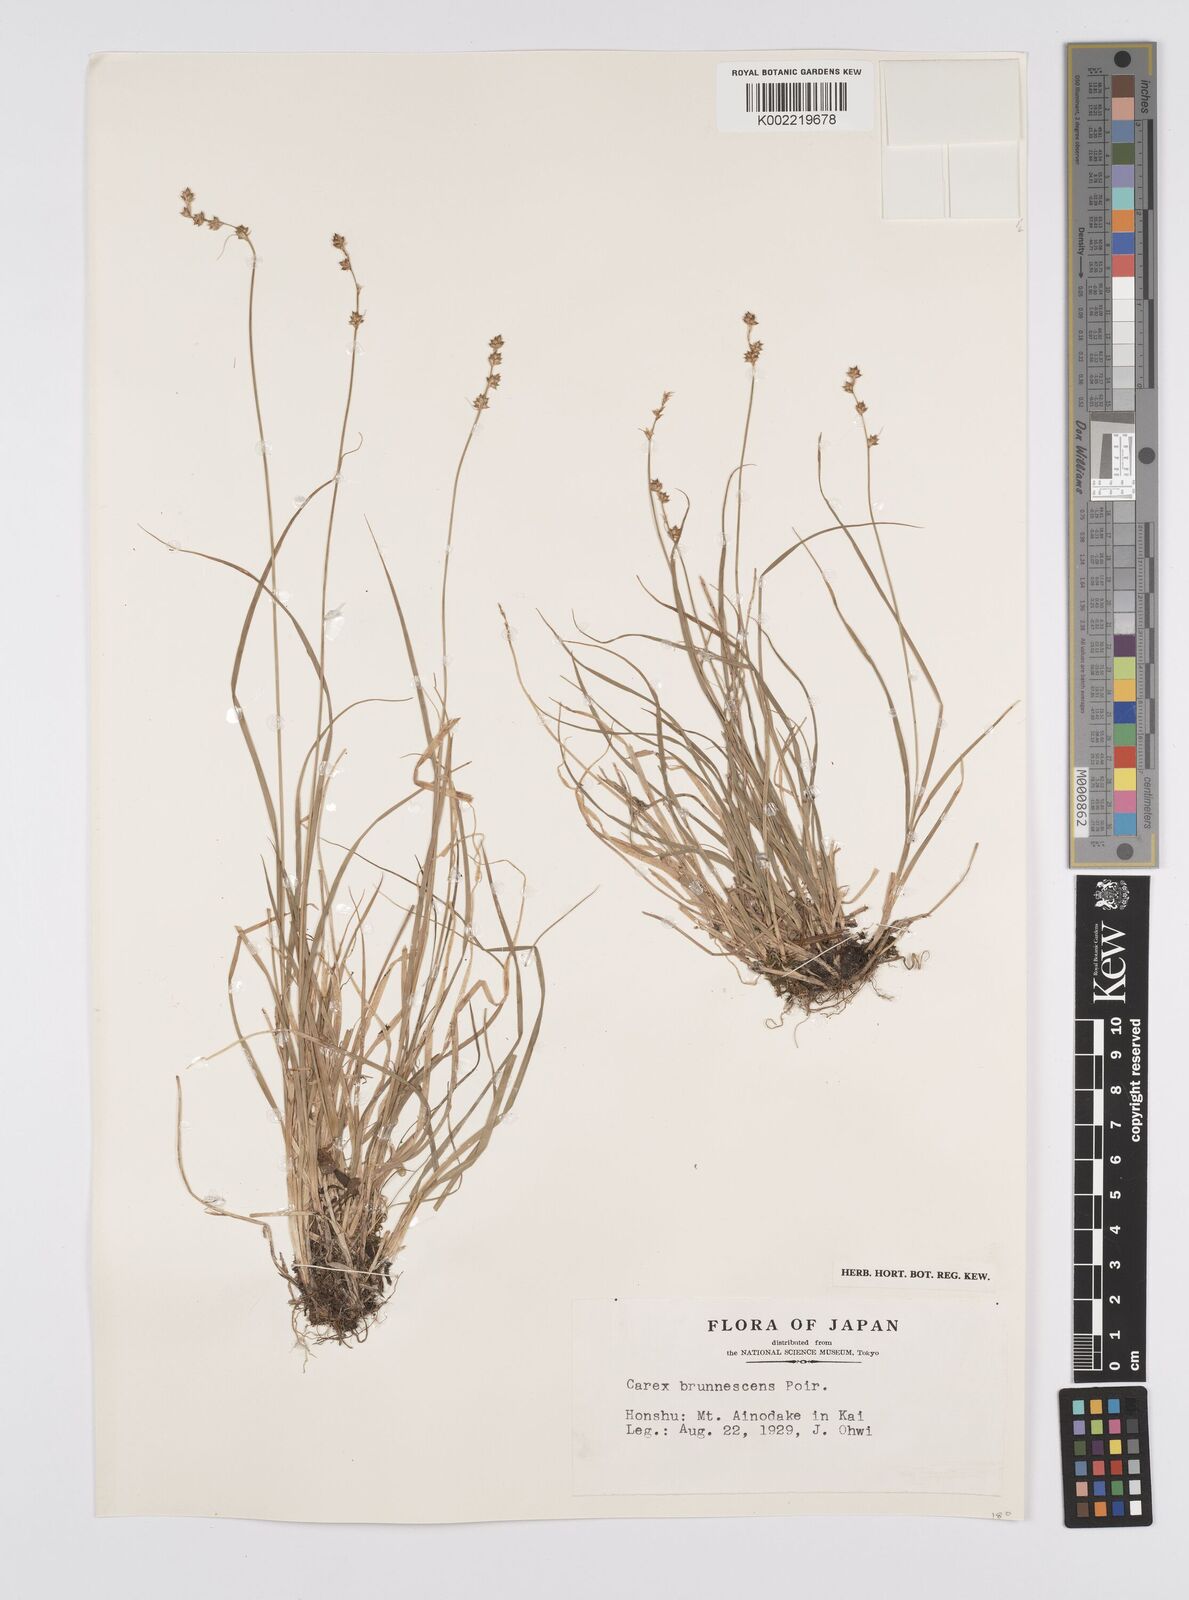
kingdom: Plantae
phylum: Tracheophyta
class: Liliopsida
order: Poales
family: Cyperaceae
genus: Carex
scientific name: Carex brunnescens
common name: Brown sedge
